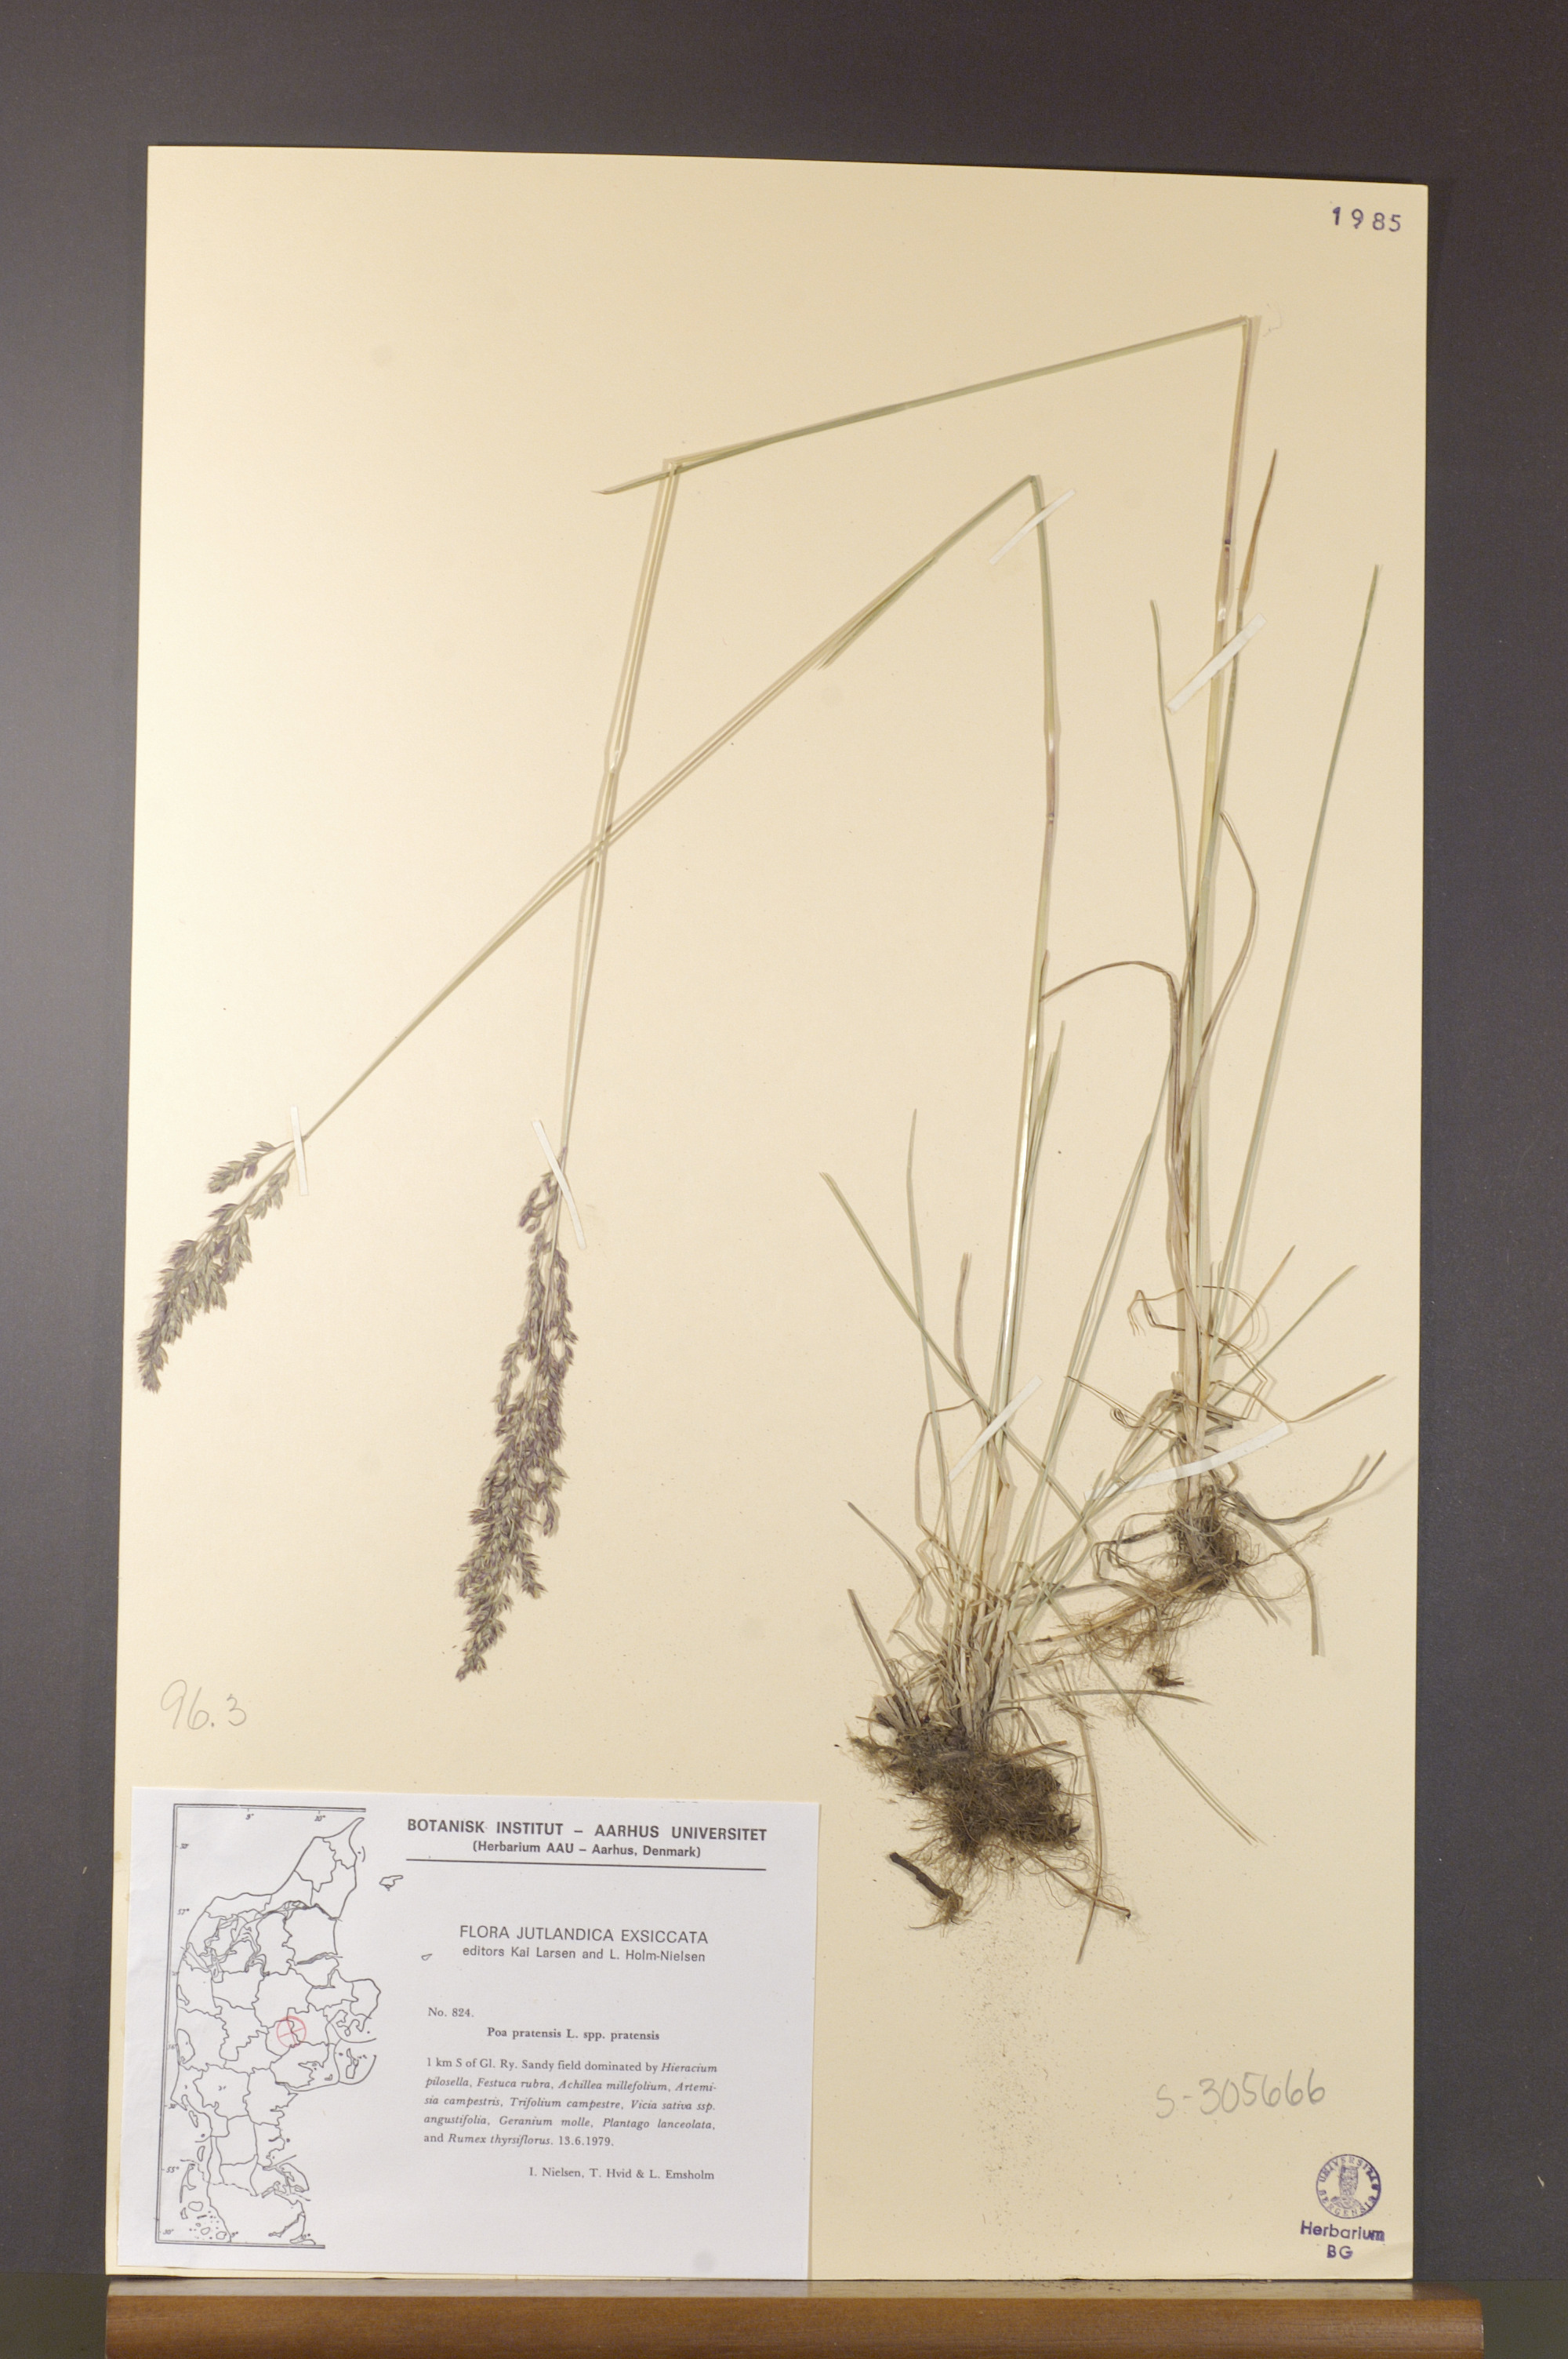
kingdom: Plantae
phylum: Tracheophyta
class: Liliopsida
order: Poales
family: Poaceae
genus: Poa
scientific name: Poa pratensis
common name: Kentucky bluegrass
